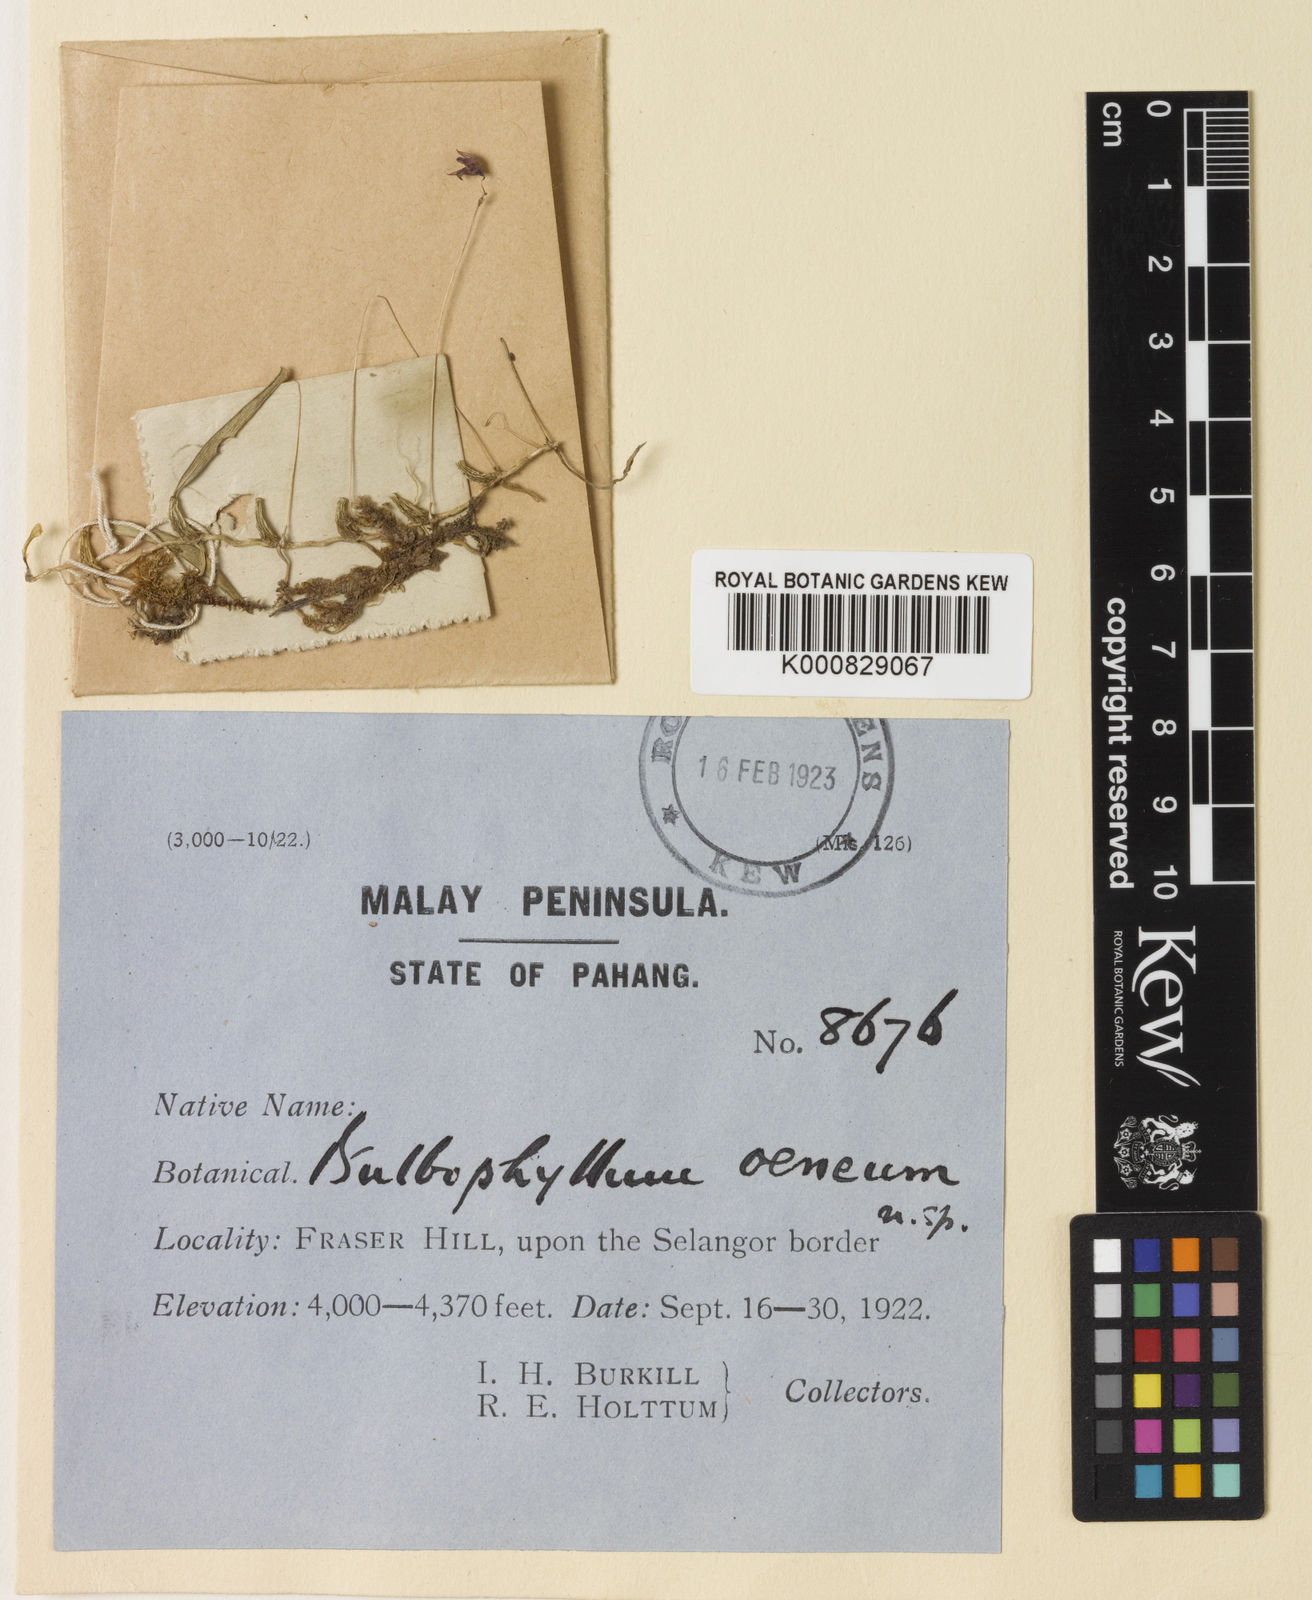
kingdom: Plantae
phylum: Tracheophyta
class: Liliopsida
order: Asparagales
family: Orchidaceae
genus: Bulbophyllum
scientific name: Bulbophyllum oeneum
